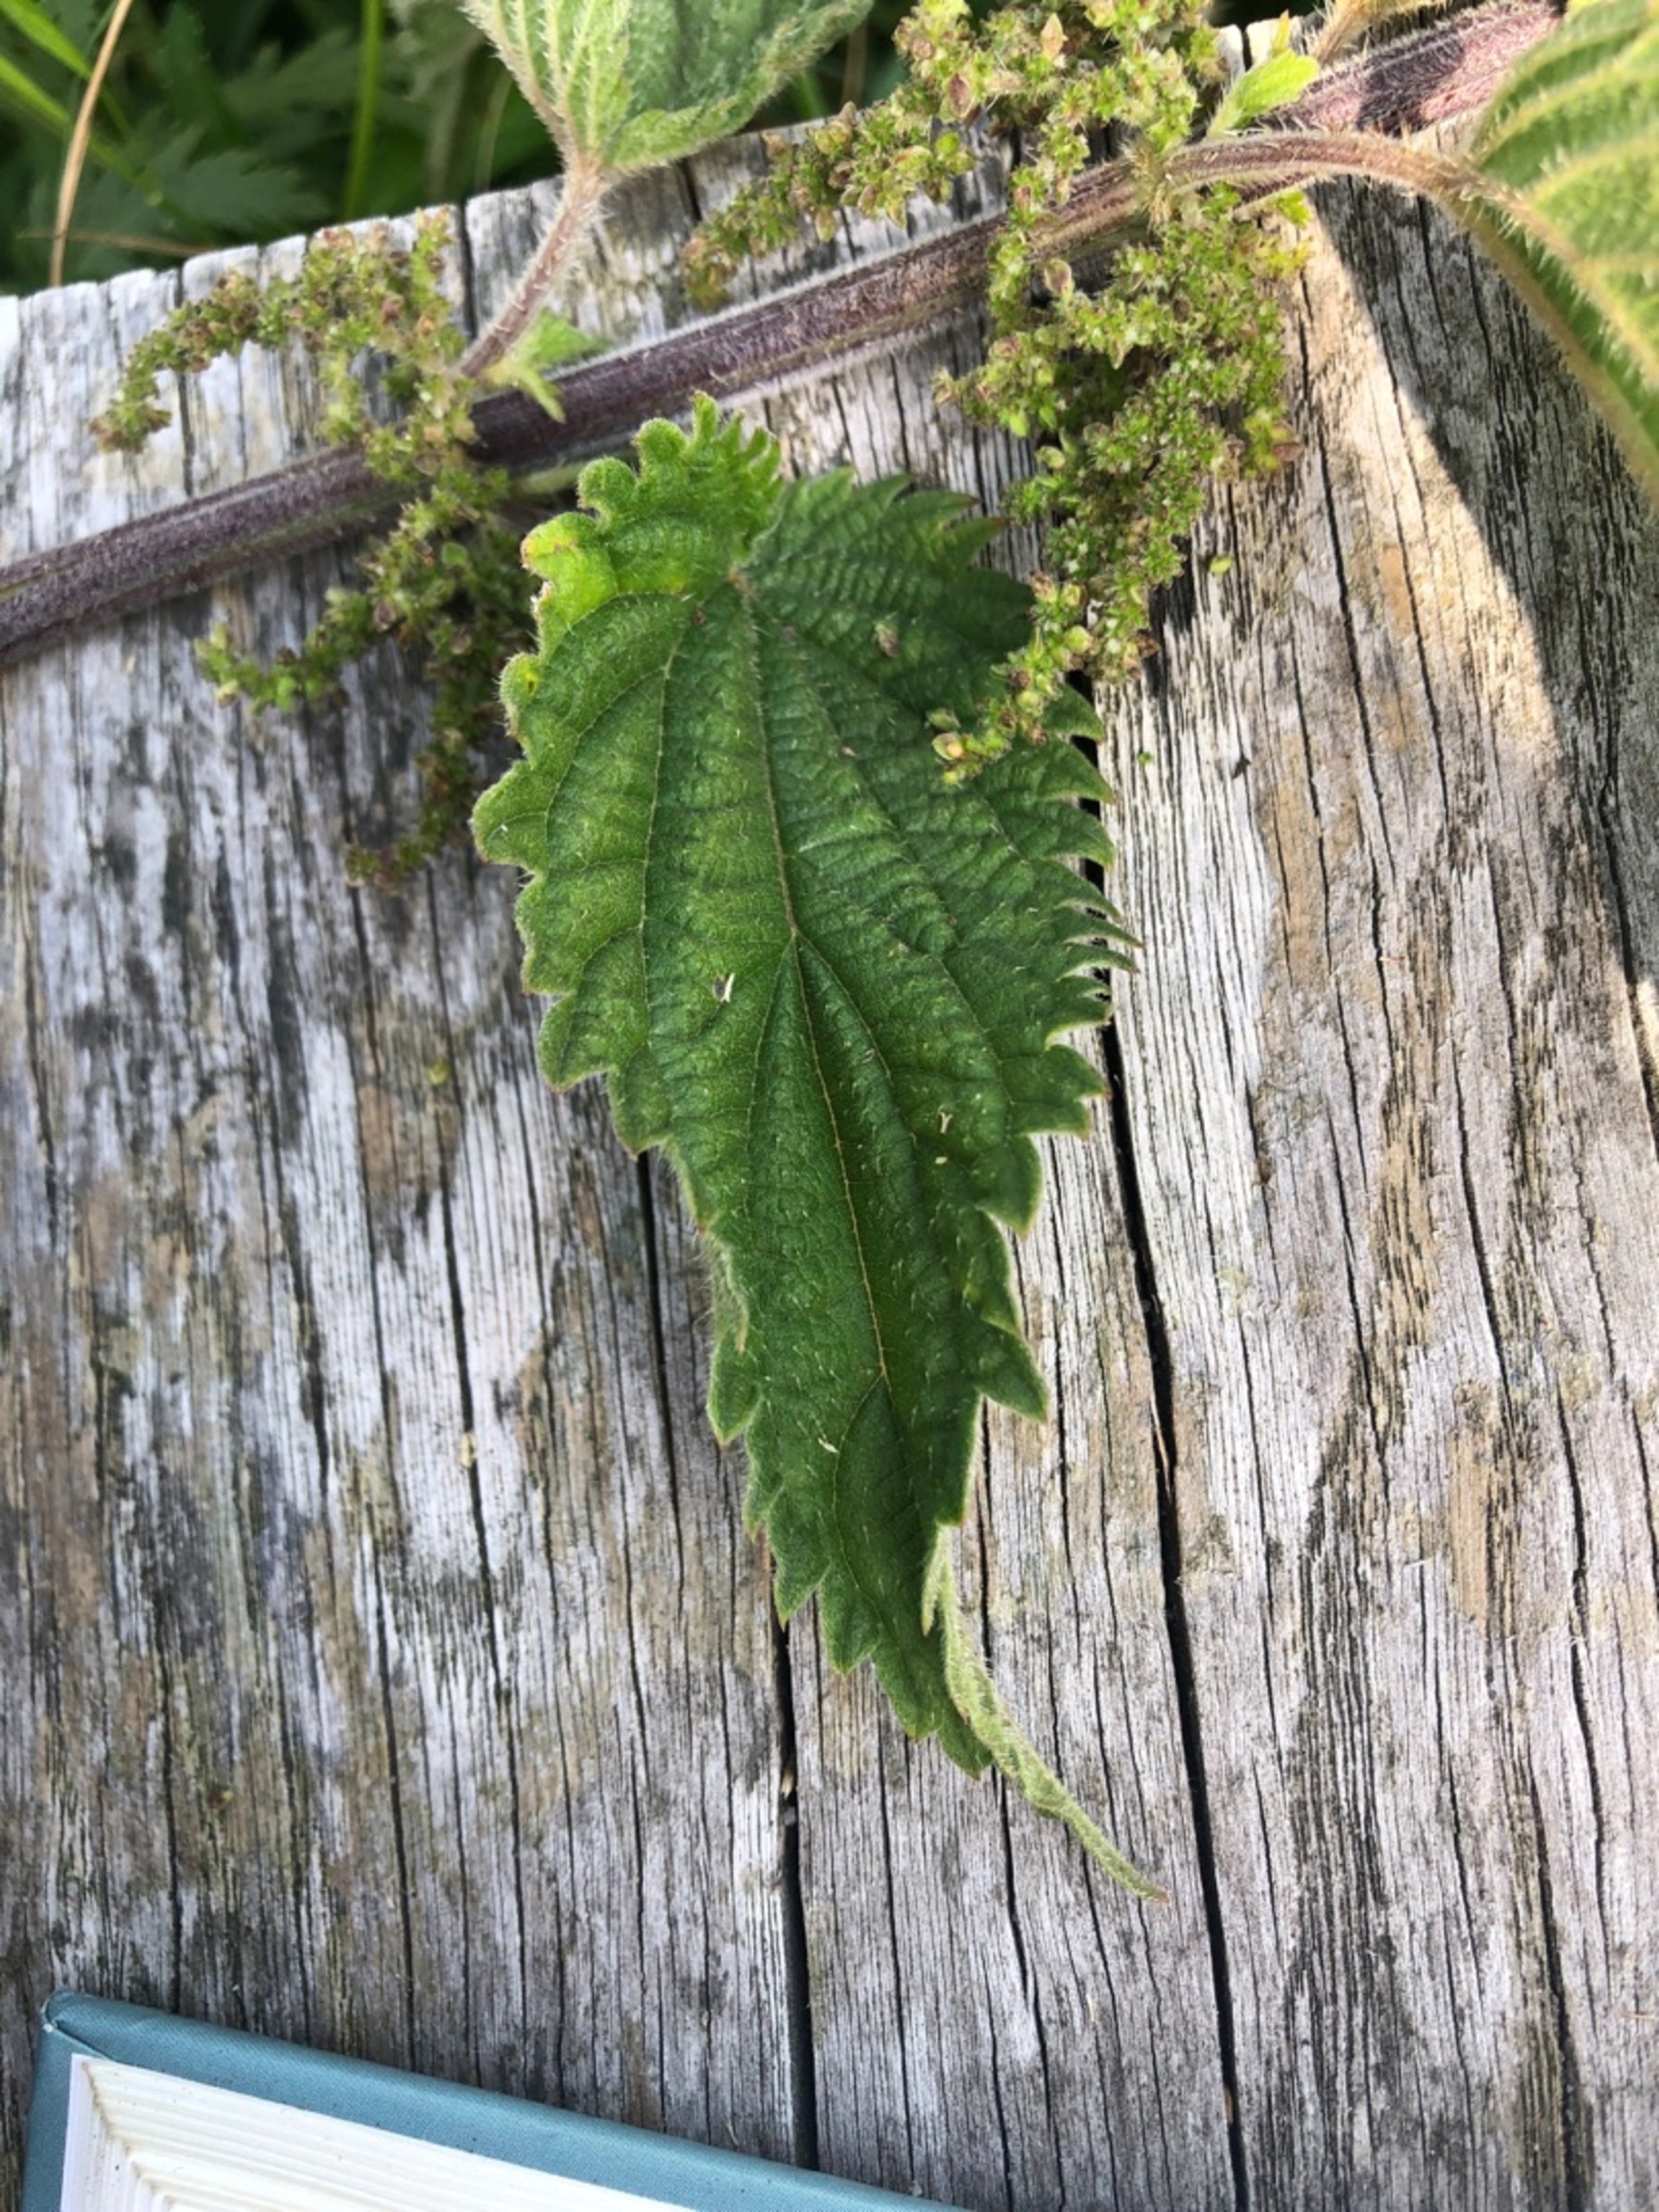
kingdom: Plantae
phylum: Tracheophyta
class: Magnoliopsida
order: Rosales
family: Urticaceae
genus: Urtica
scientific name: Urtica dioica
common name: Stor nælde
